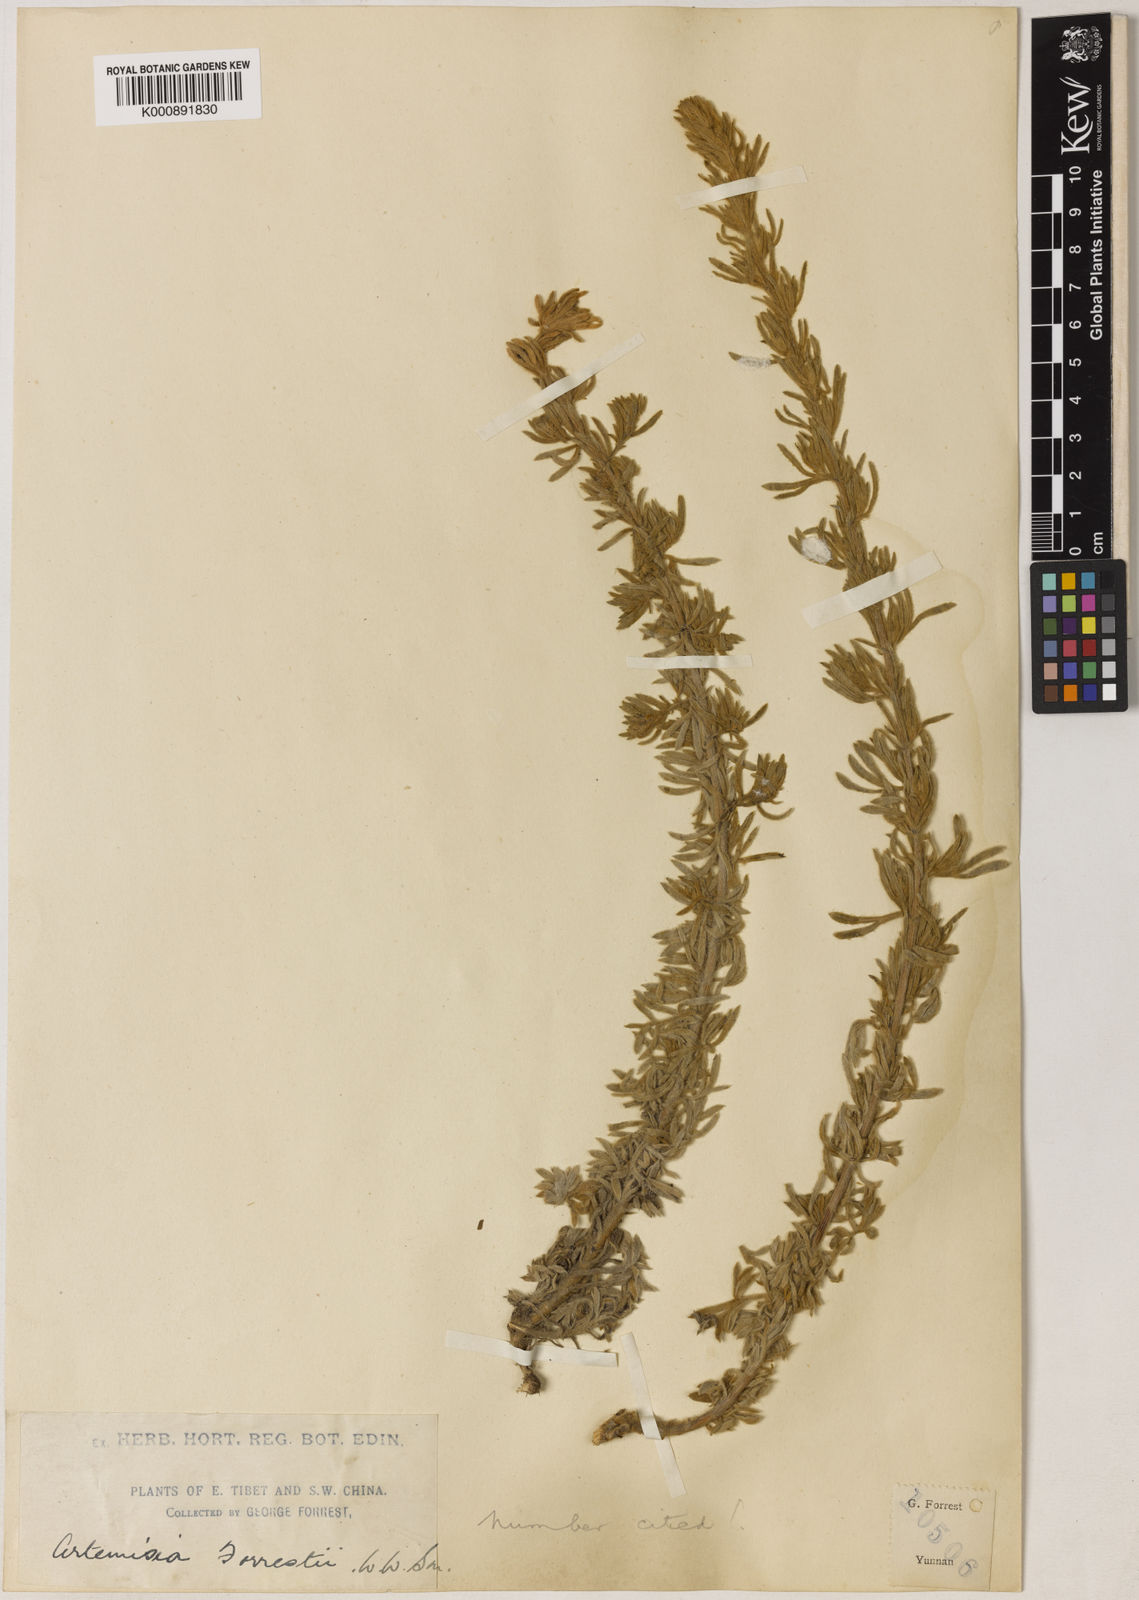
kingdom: Plantae
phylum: Tracheophyta
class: Magnoliopsida
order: Asterales
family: Asteraceae
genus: Artemisia
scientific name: Artemisia forrestii
